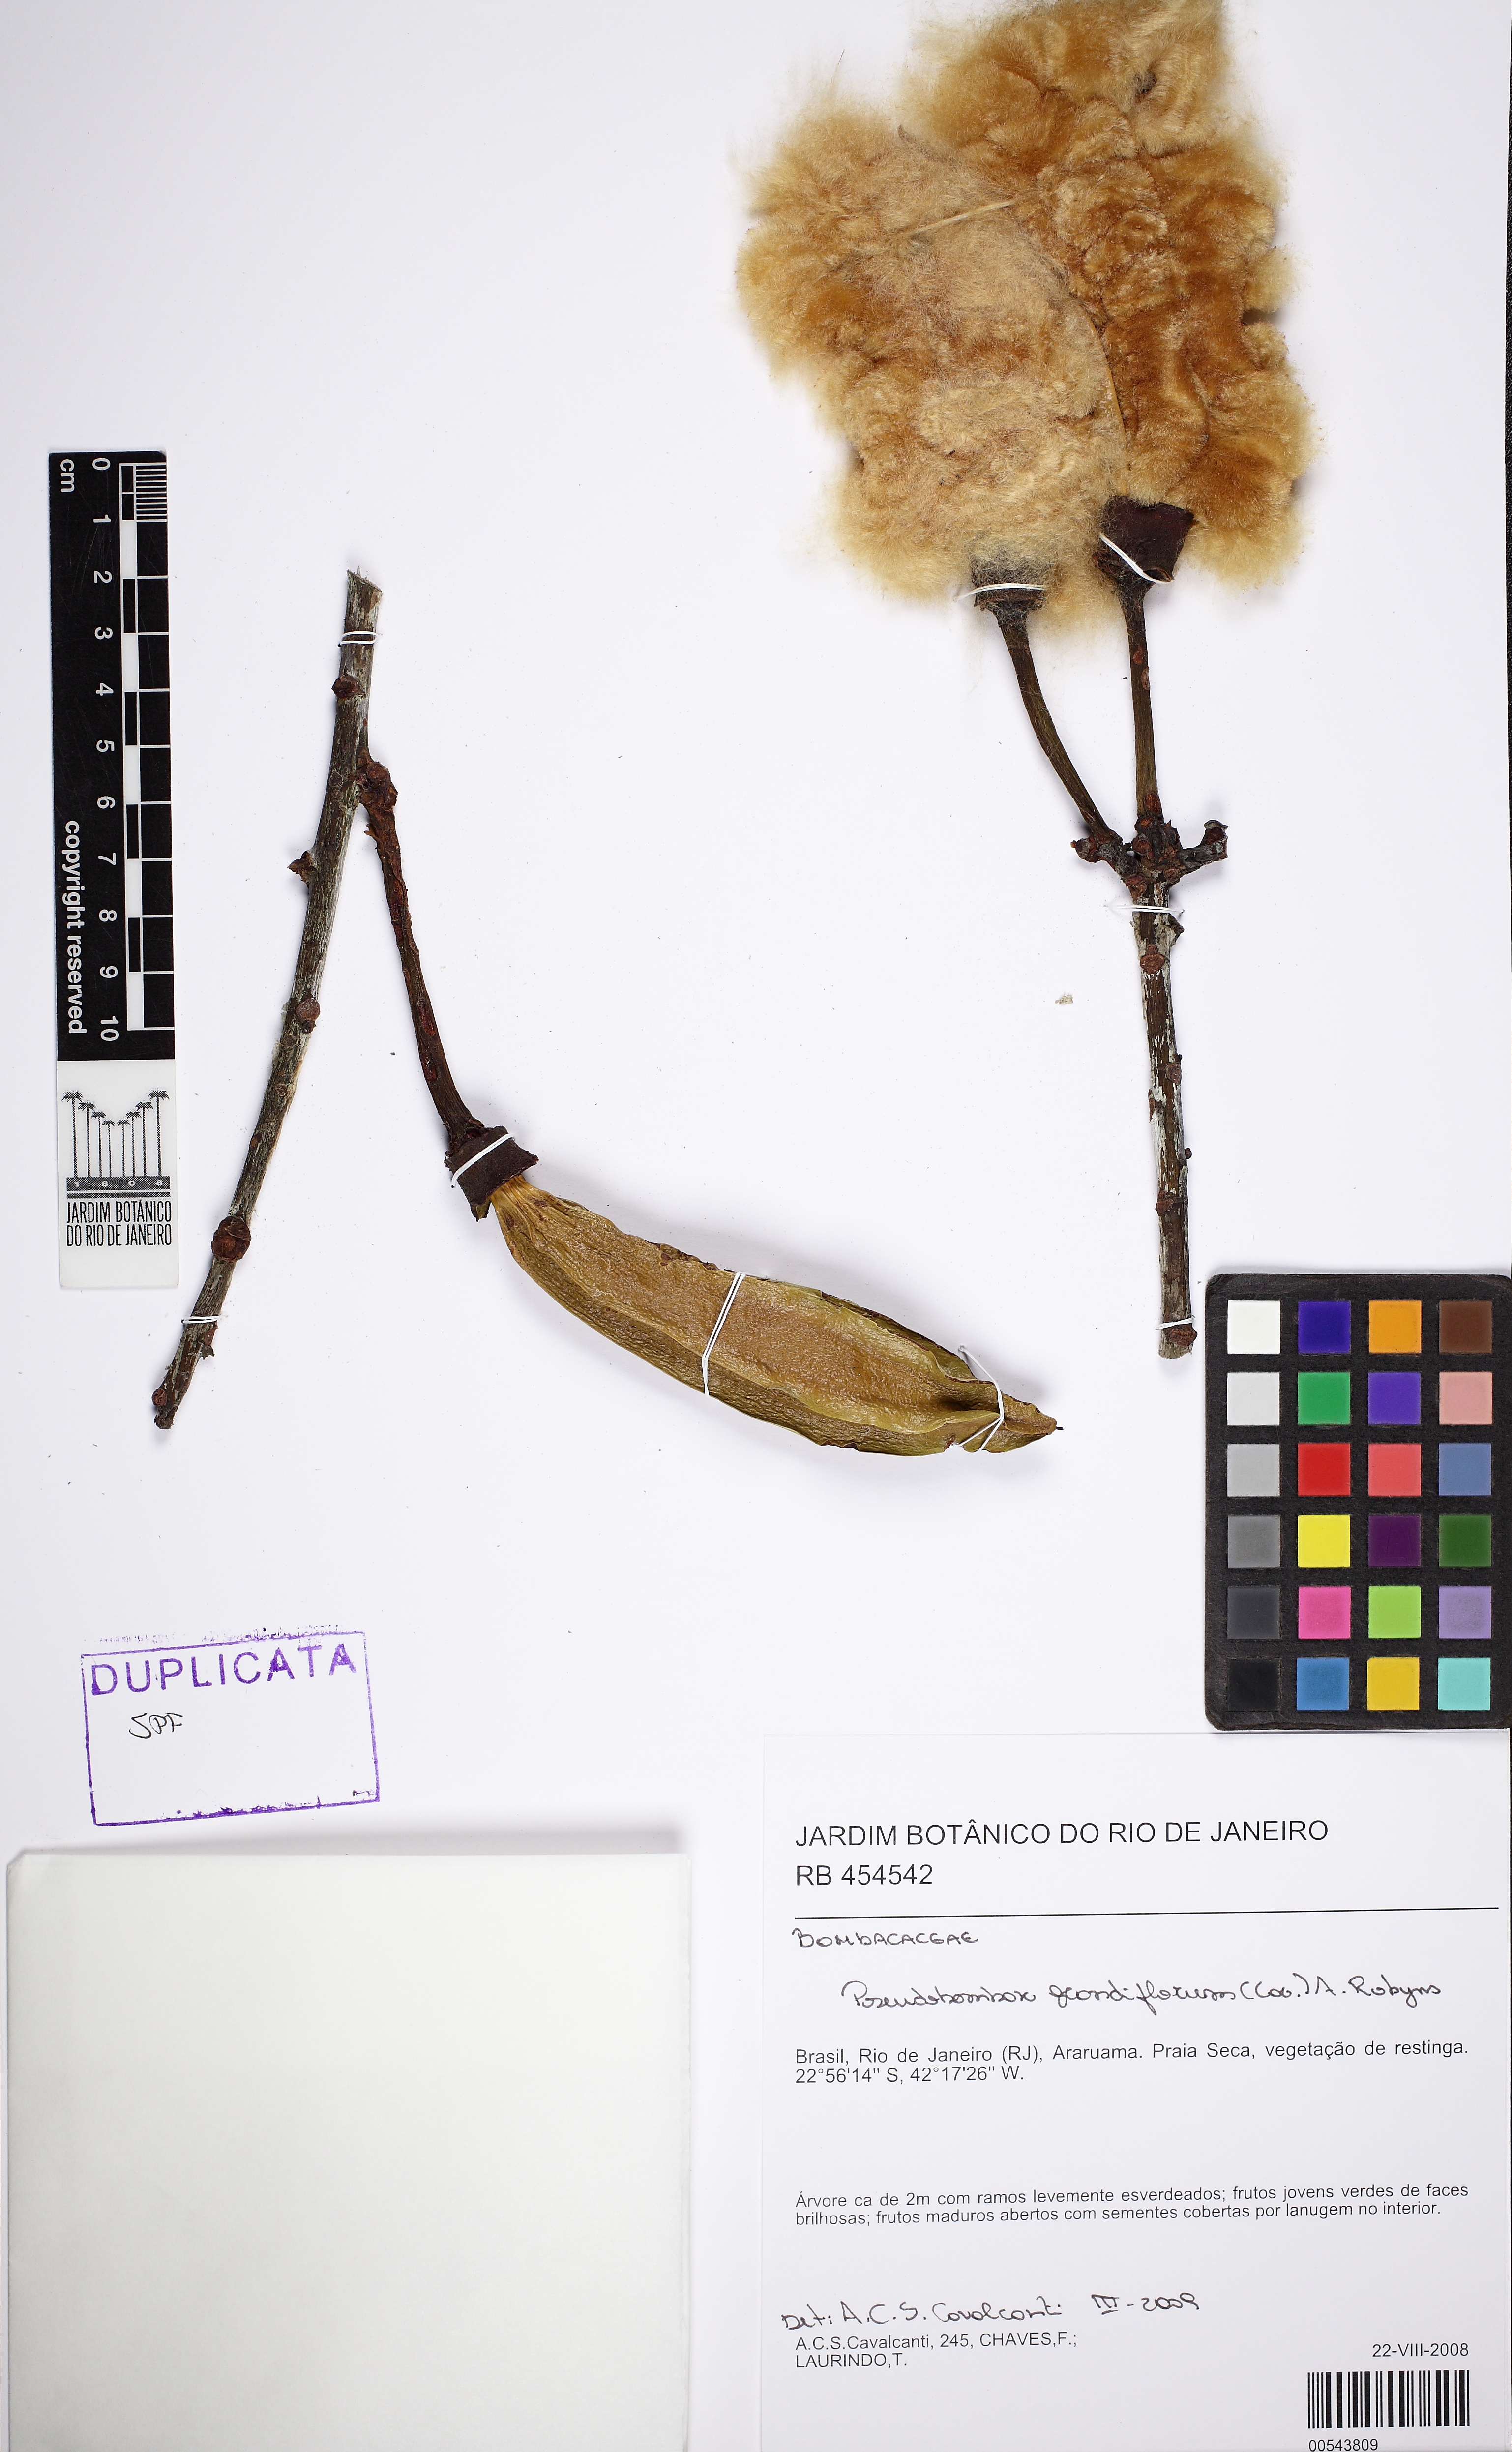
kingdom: Plantae
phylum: Tracheophyta
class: Magnoliopsida
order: Malvales
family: Malvaceae
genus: Pseudobombax
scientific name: Pseudobombax grandiflorum
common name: Brazilian shaving-brush-tree
